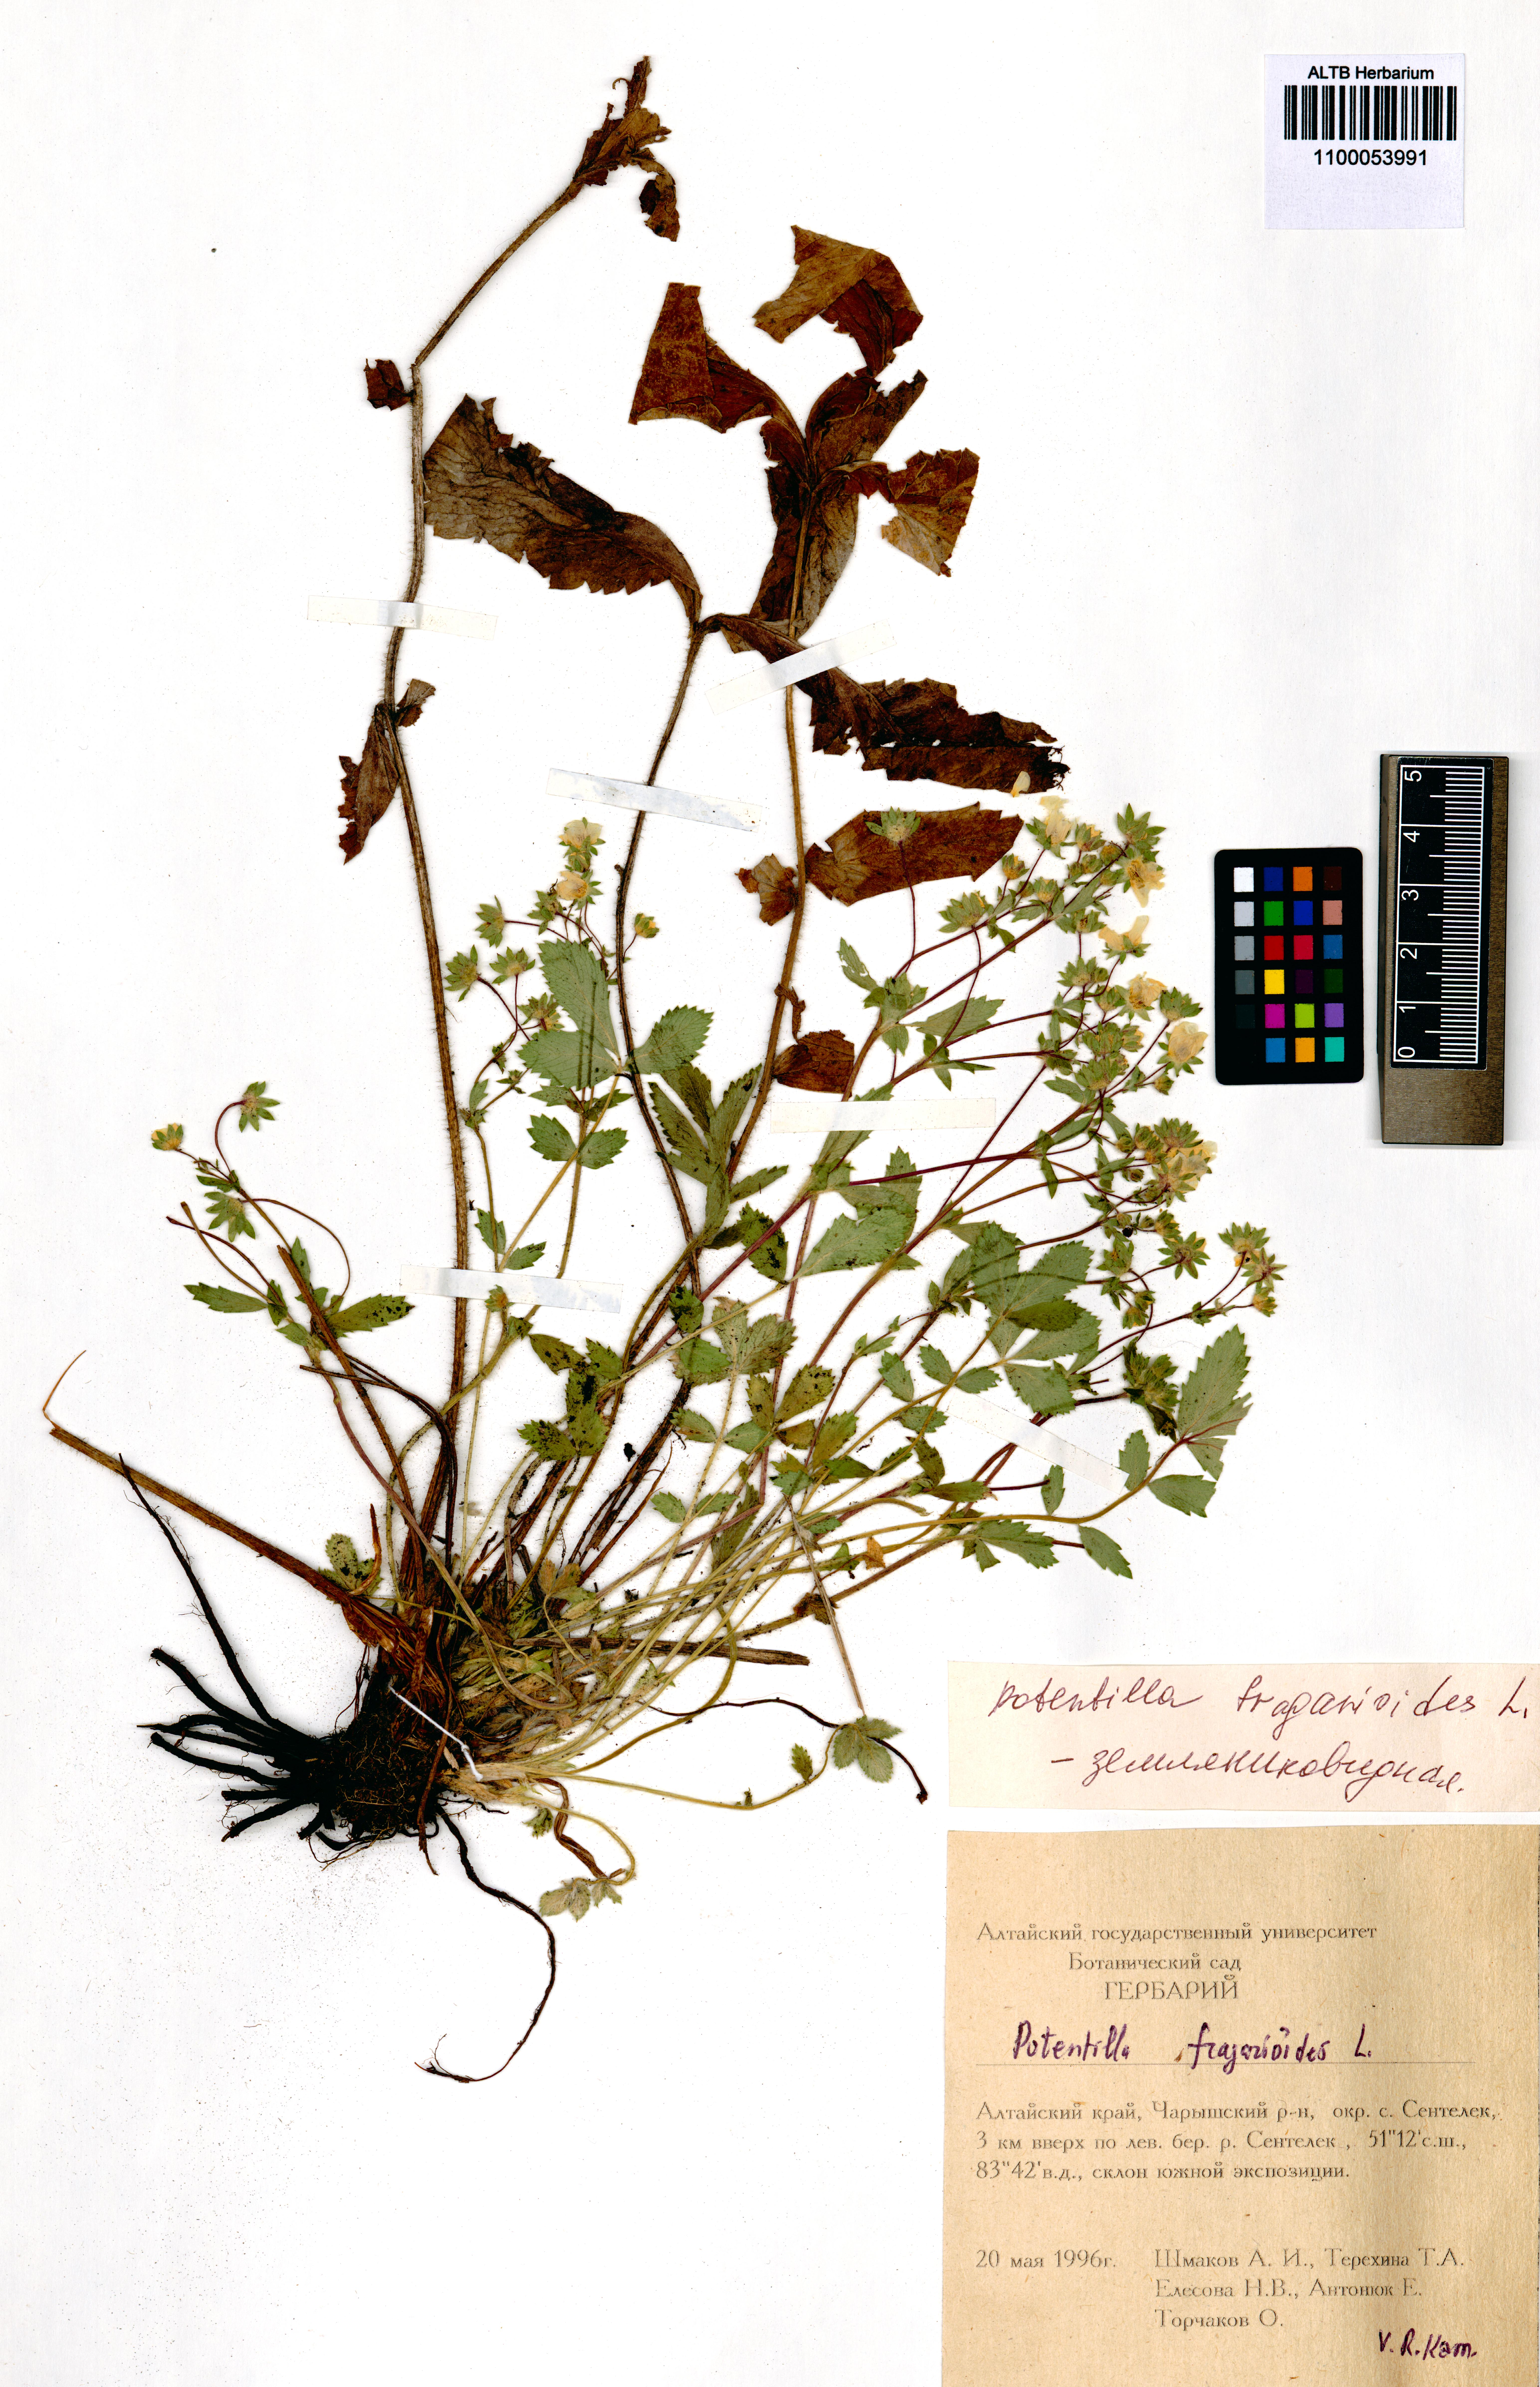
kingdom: Plantae
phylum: Tracheophyta
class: Magnoliopsida
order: Rosales
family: Rosaceae
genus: Potentilla
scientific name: Potentilla fragarioides
